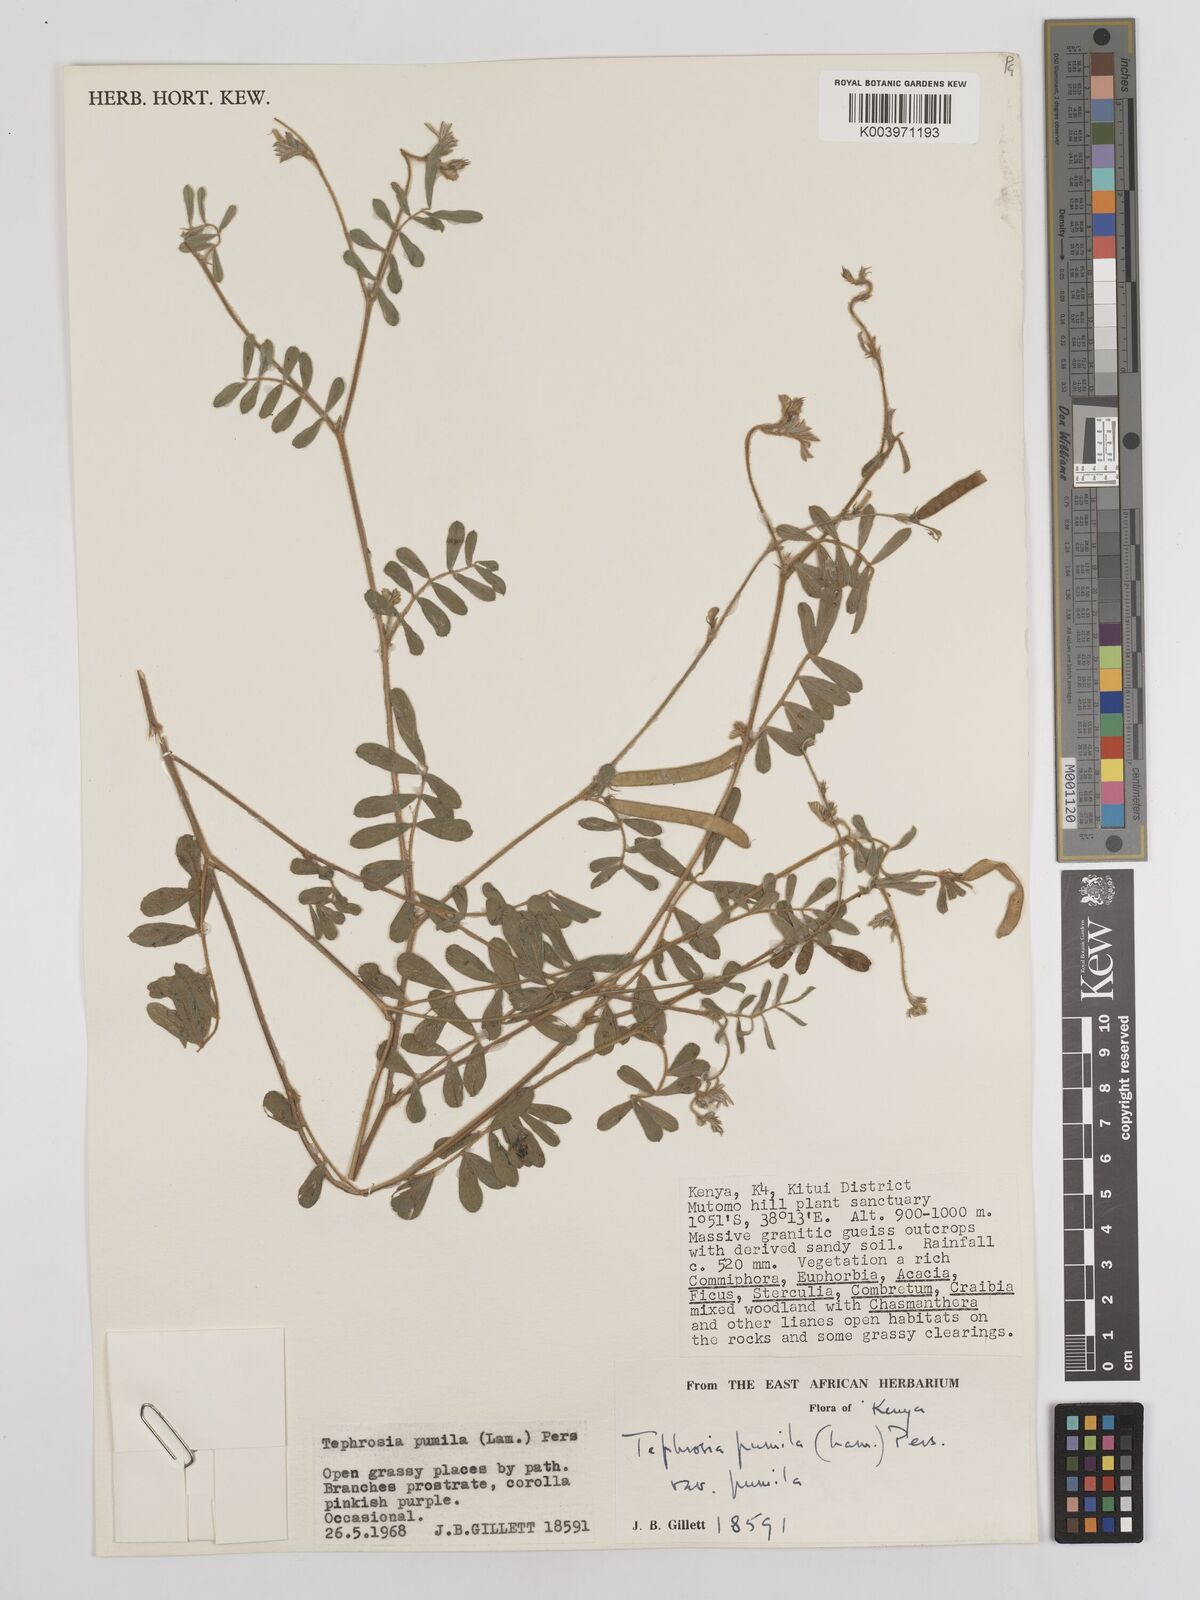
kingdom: Plantae
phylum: Tracheophyta
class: Magnoliopsida
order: Fabales
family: Fabaceae
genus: Tephrosia
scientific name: Tephrosia pumila
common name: Indigo sauvage
